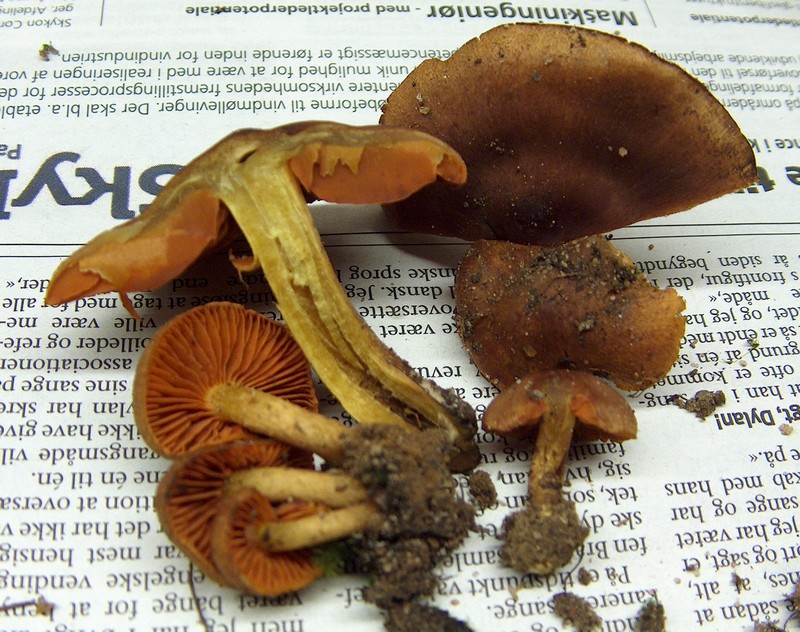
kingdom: Fungi
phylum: Basidiomycota
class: Agaricomycetes
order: Agaricales
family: Cortinariaceae
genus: Cortinarius
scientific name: Cortinarius cinnamomeus
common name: kanel-slørhat
